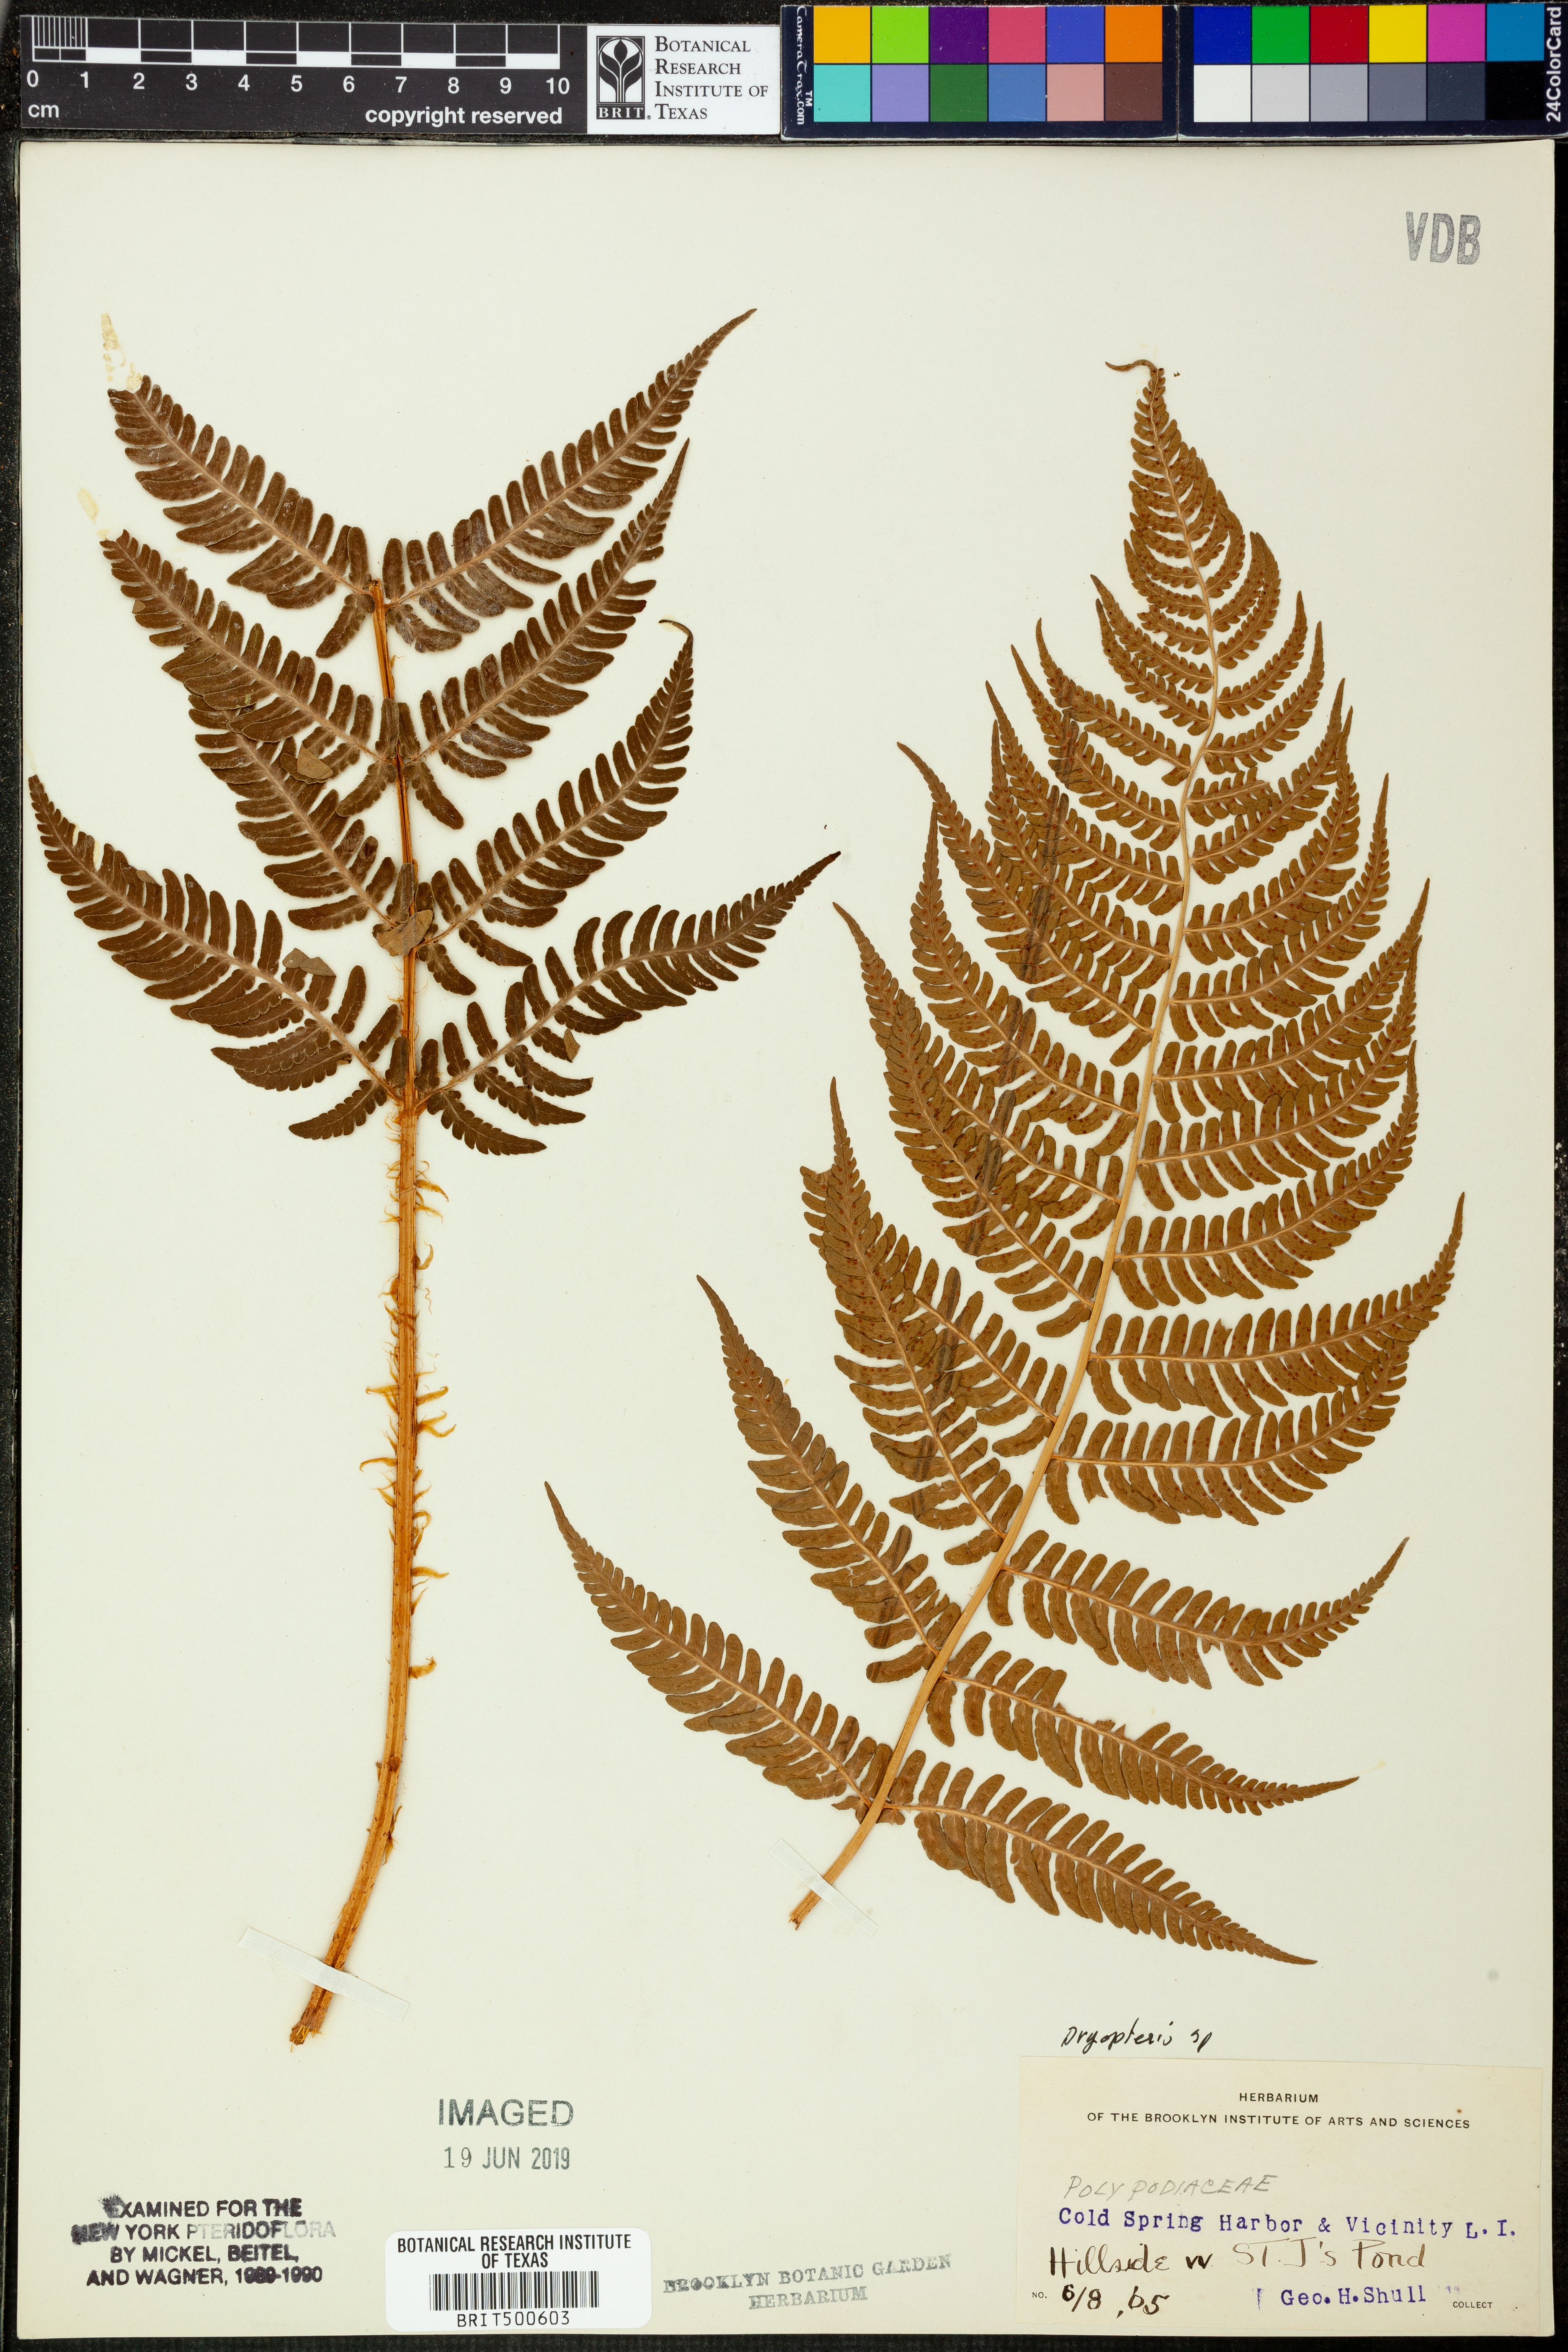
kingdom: Plantae
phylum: Tracheophyta
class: Polypodiopsida
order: Polypodiales
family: Dryopteridaceae
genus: Dryopteris
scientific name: Dryopteris
